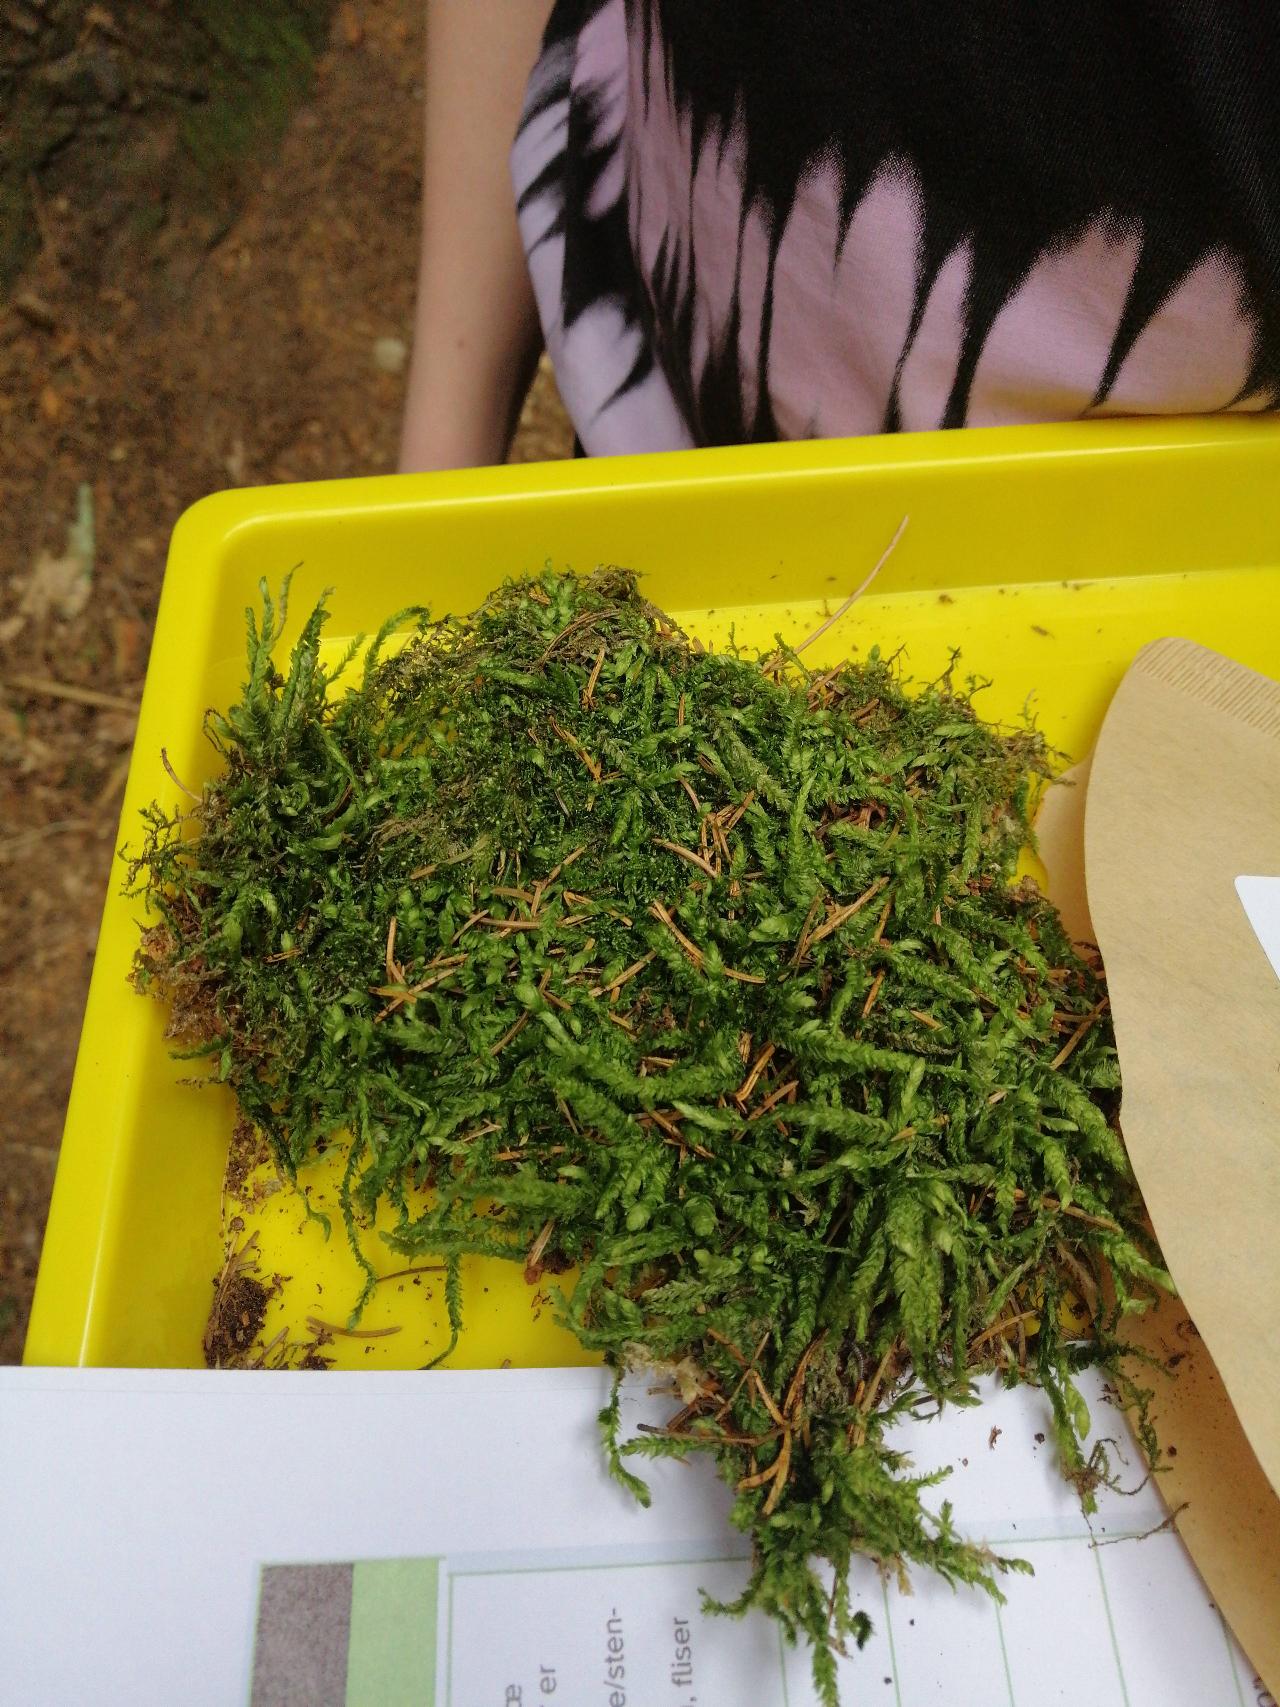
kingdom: Plantae
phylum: Bryophyta
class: Bryopsida
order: Hypnales
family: Plagiotheciaceae
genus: Plagiothecium
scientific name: Plagiothecium undulatum
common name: Bølget tæppemos
